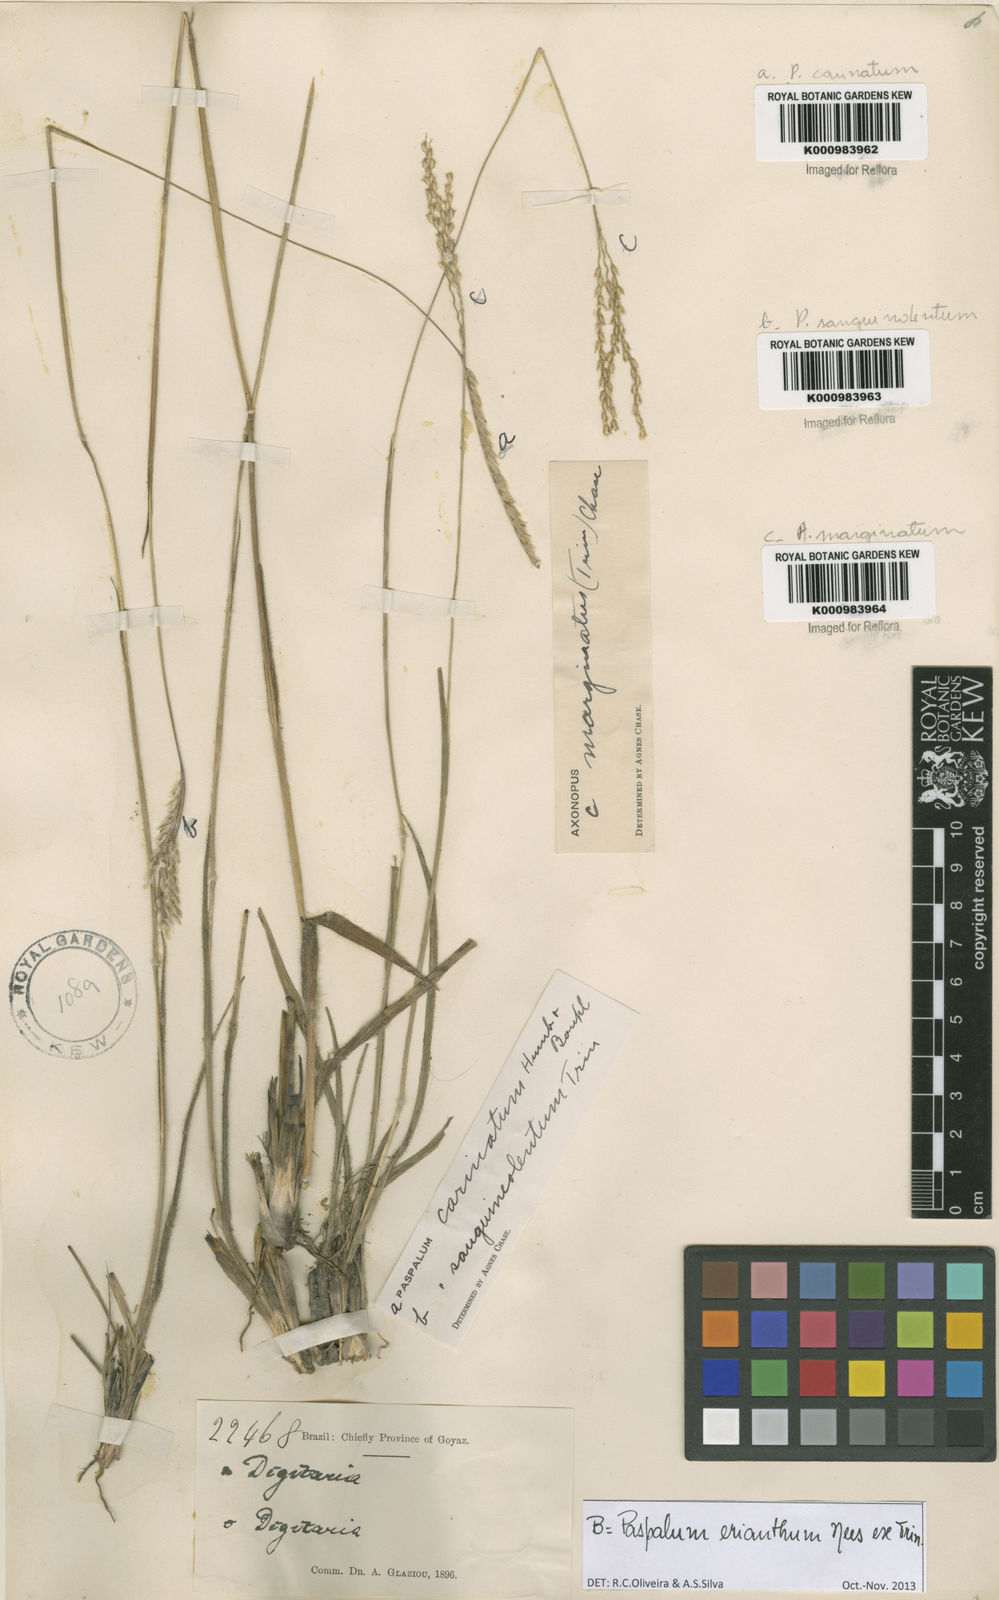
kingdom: Plantae
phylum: Tracheophyta
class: Liliopsida
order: Poales
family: Poaceae
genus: Paspalum
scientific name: Paspalum
